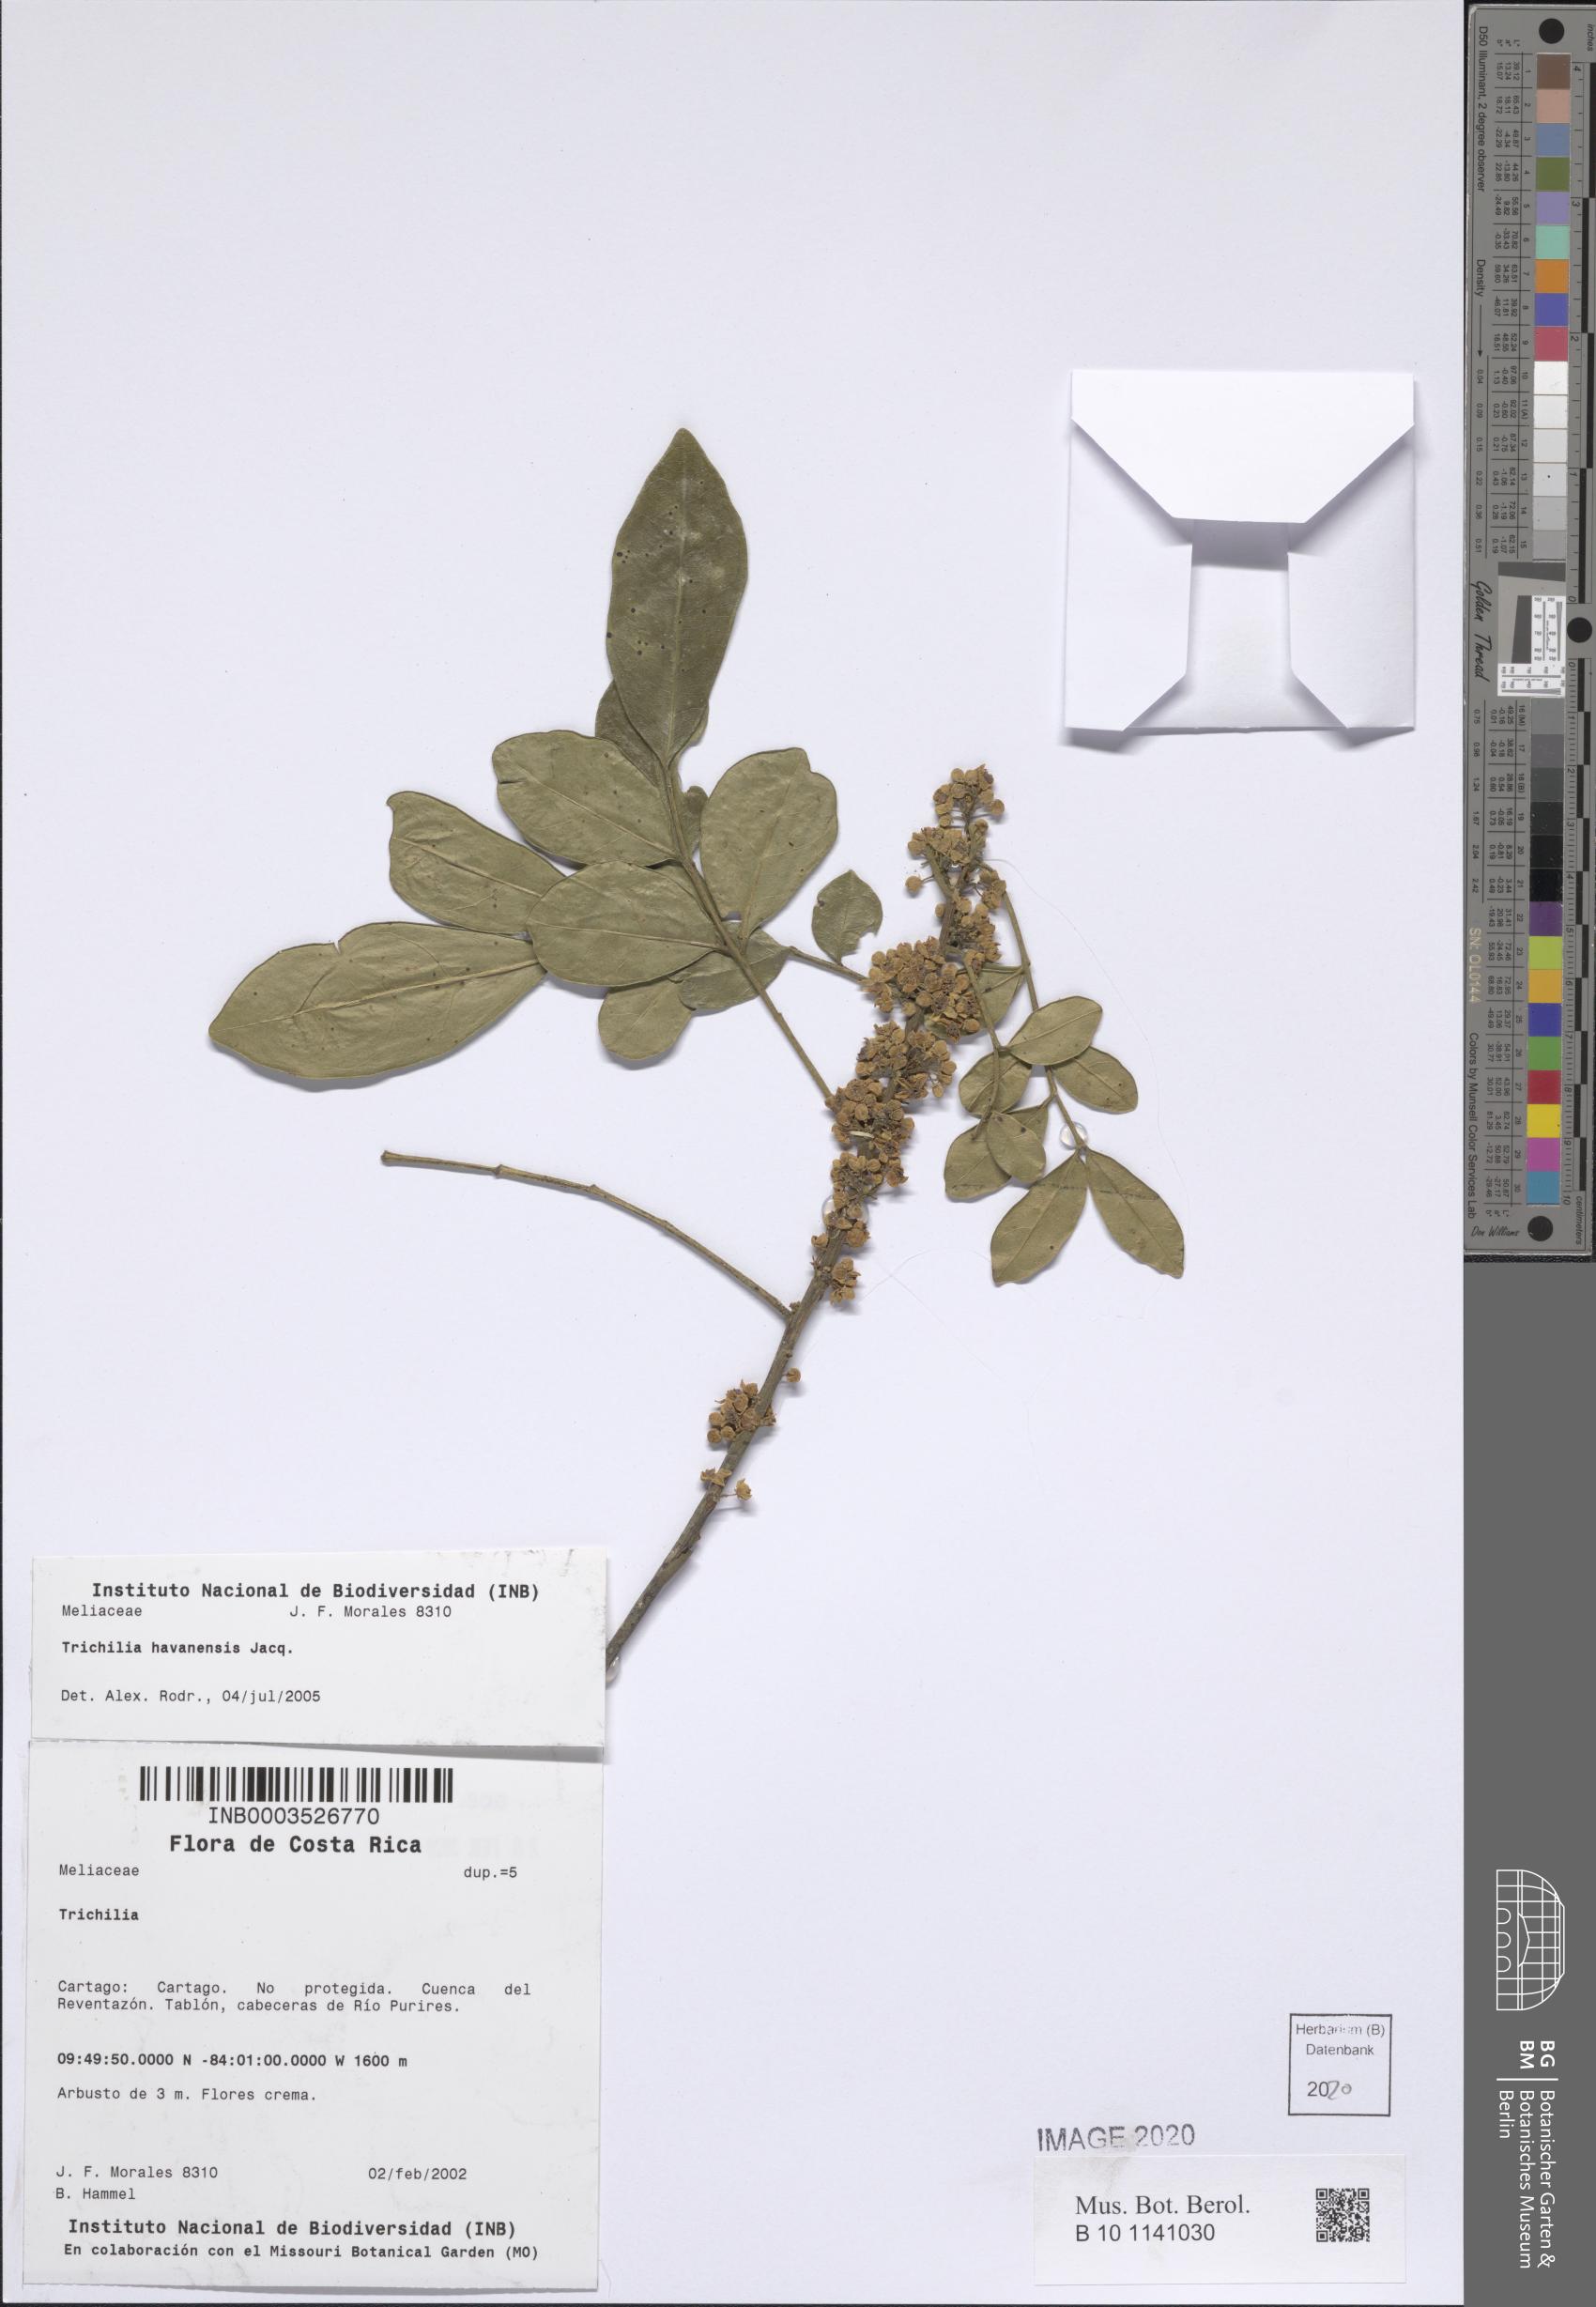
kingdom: Plantae
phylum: Tracheophyta
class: Magnoliopsida
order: Sapindales
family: Meliaceae
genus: Trichilia
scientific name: Trichilia havanensis
